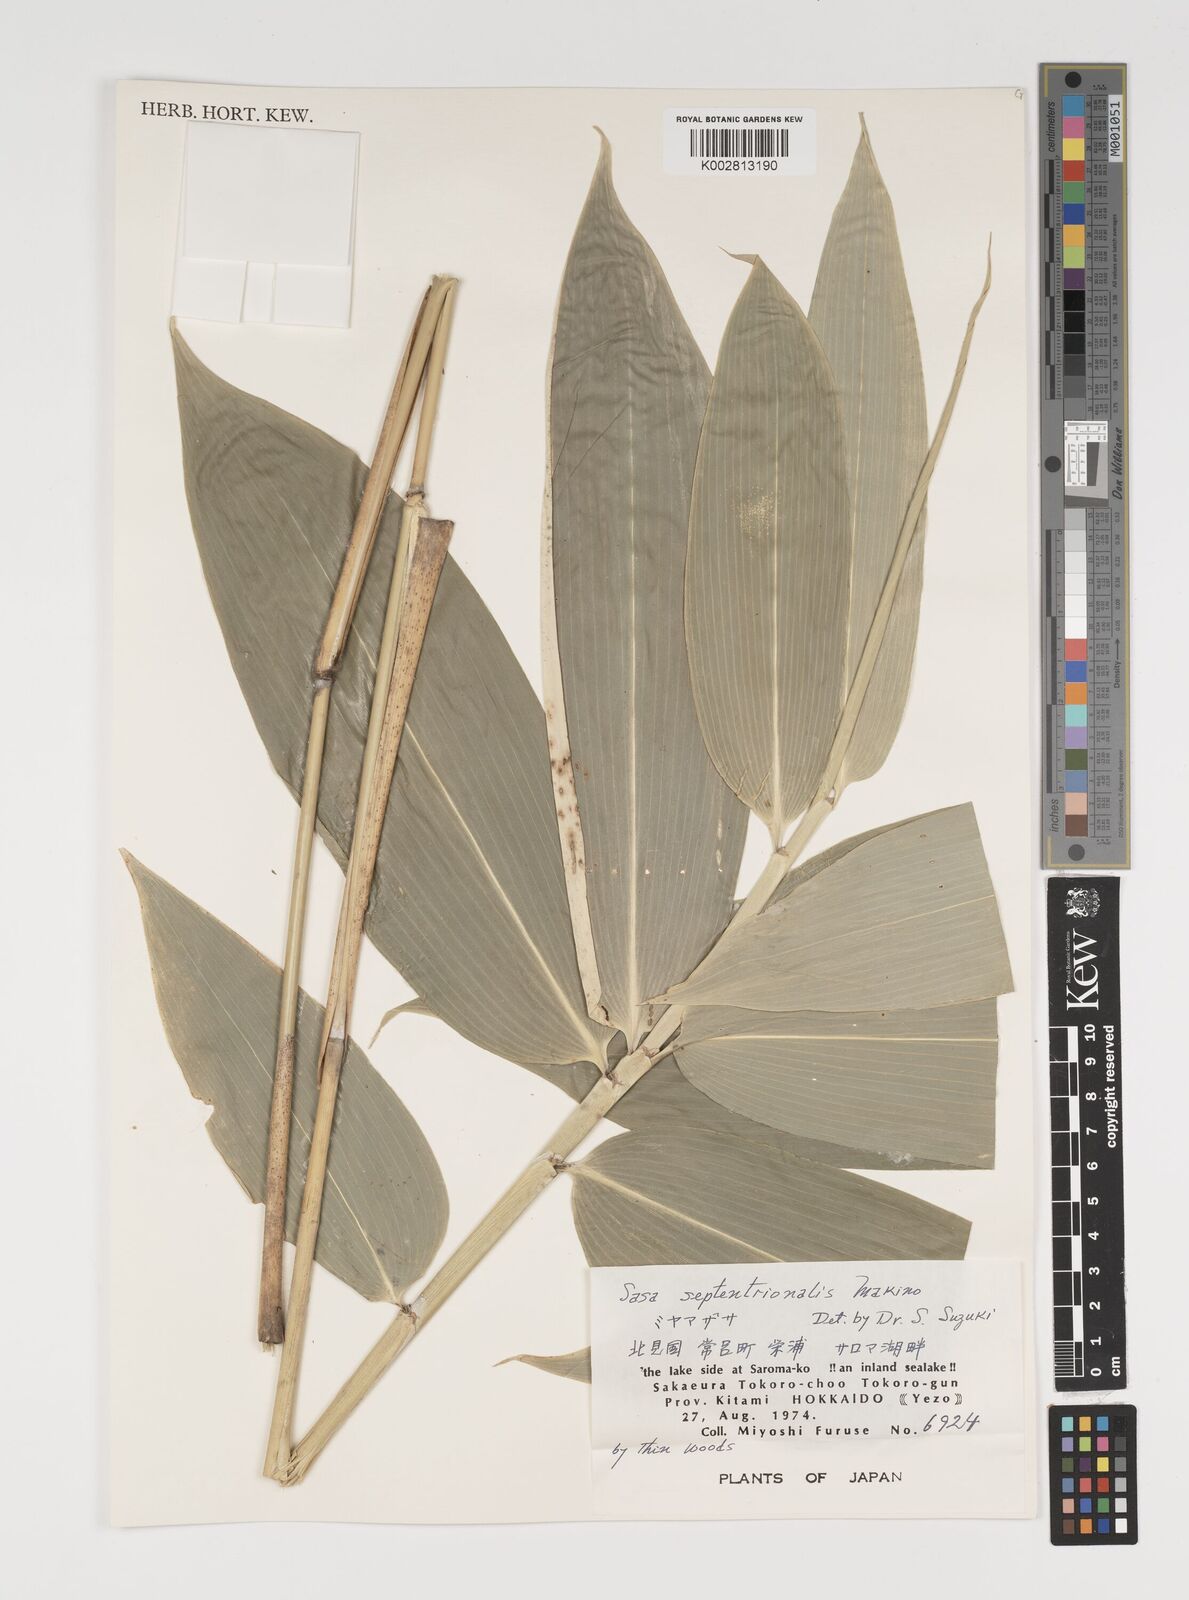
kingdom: Plantae
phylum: Tracheophyta
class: Liliopsida
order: Poales
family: Poaceae
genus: Sasa
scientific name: Sasa septentrionalis
